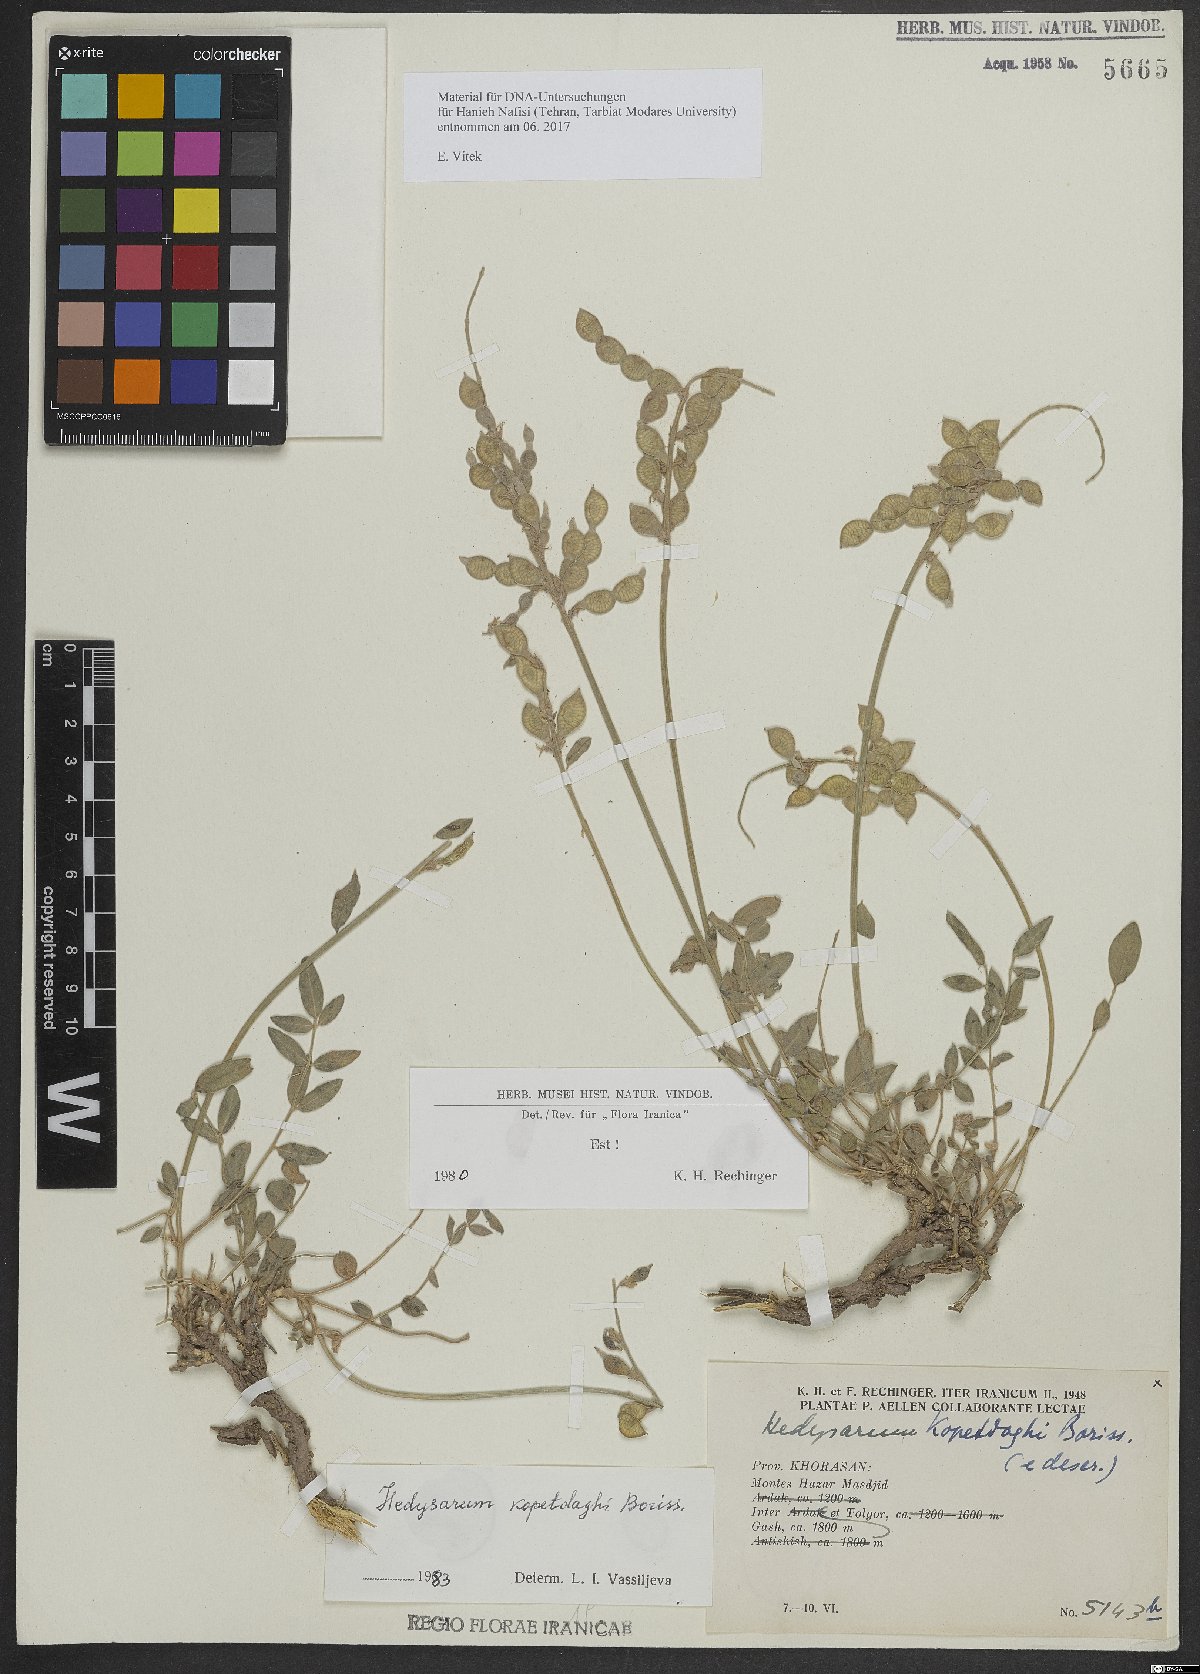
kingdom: Plantae
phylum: Tracheophyta
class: Magnoliopsida
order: Fabales
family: Fabaceae
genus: Hedysarum
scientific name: Hedysarum kopetdaghi
